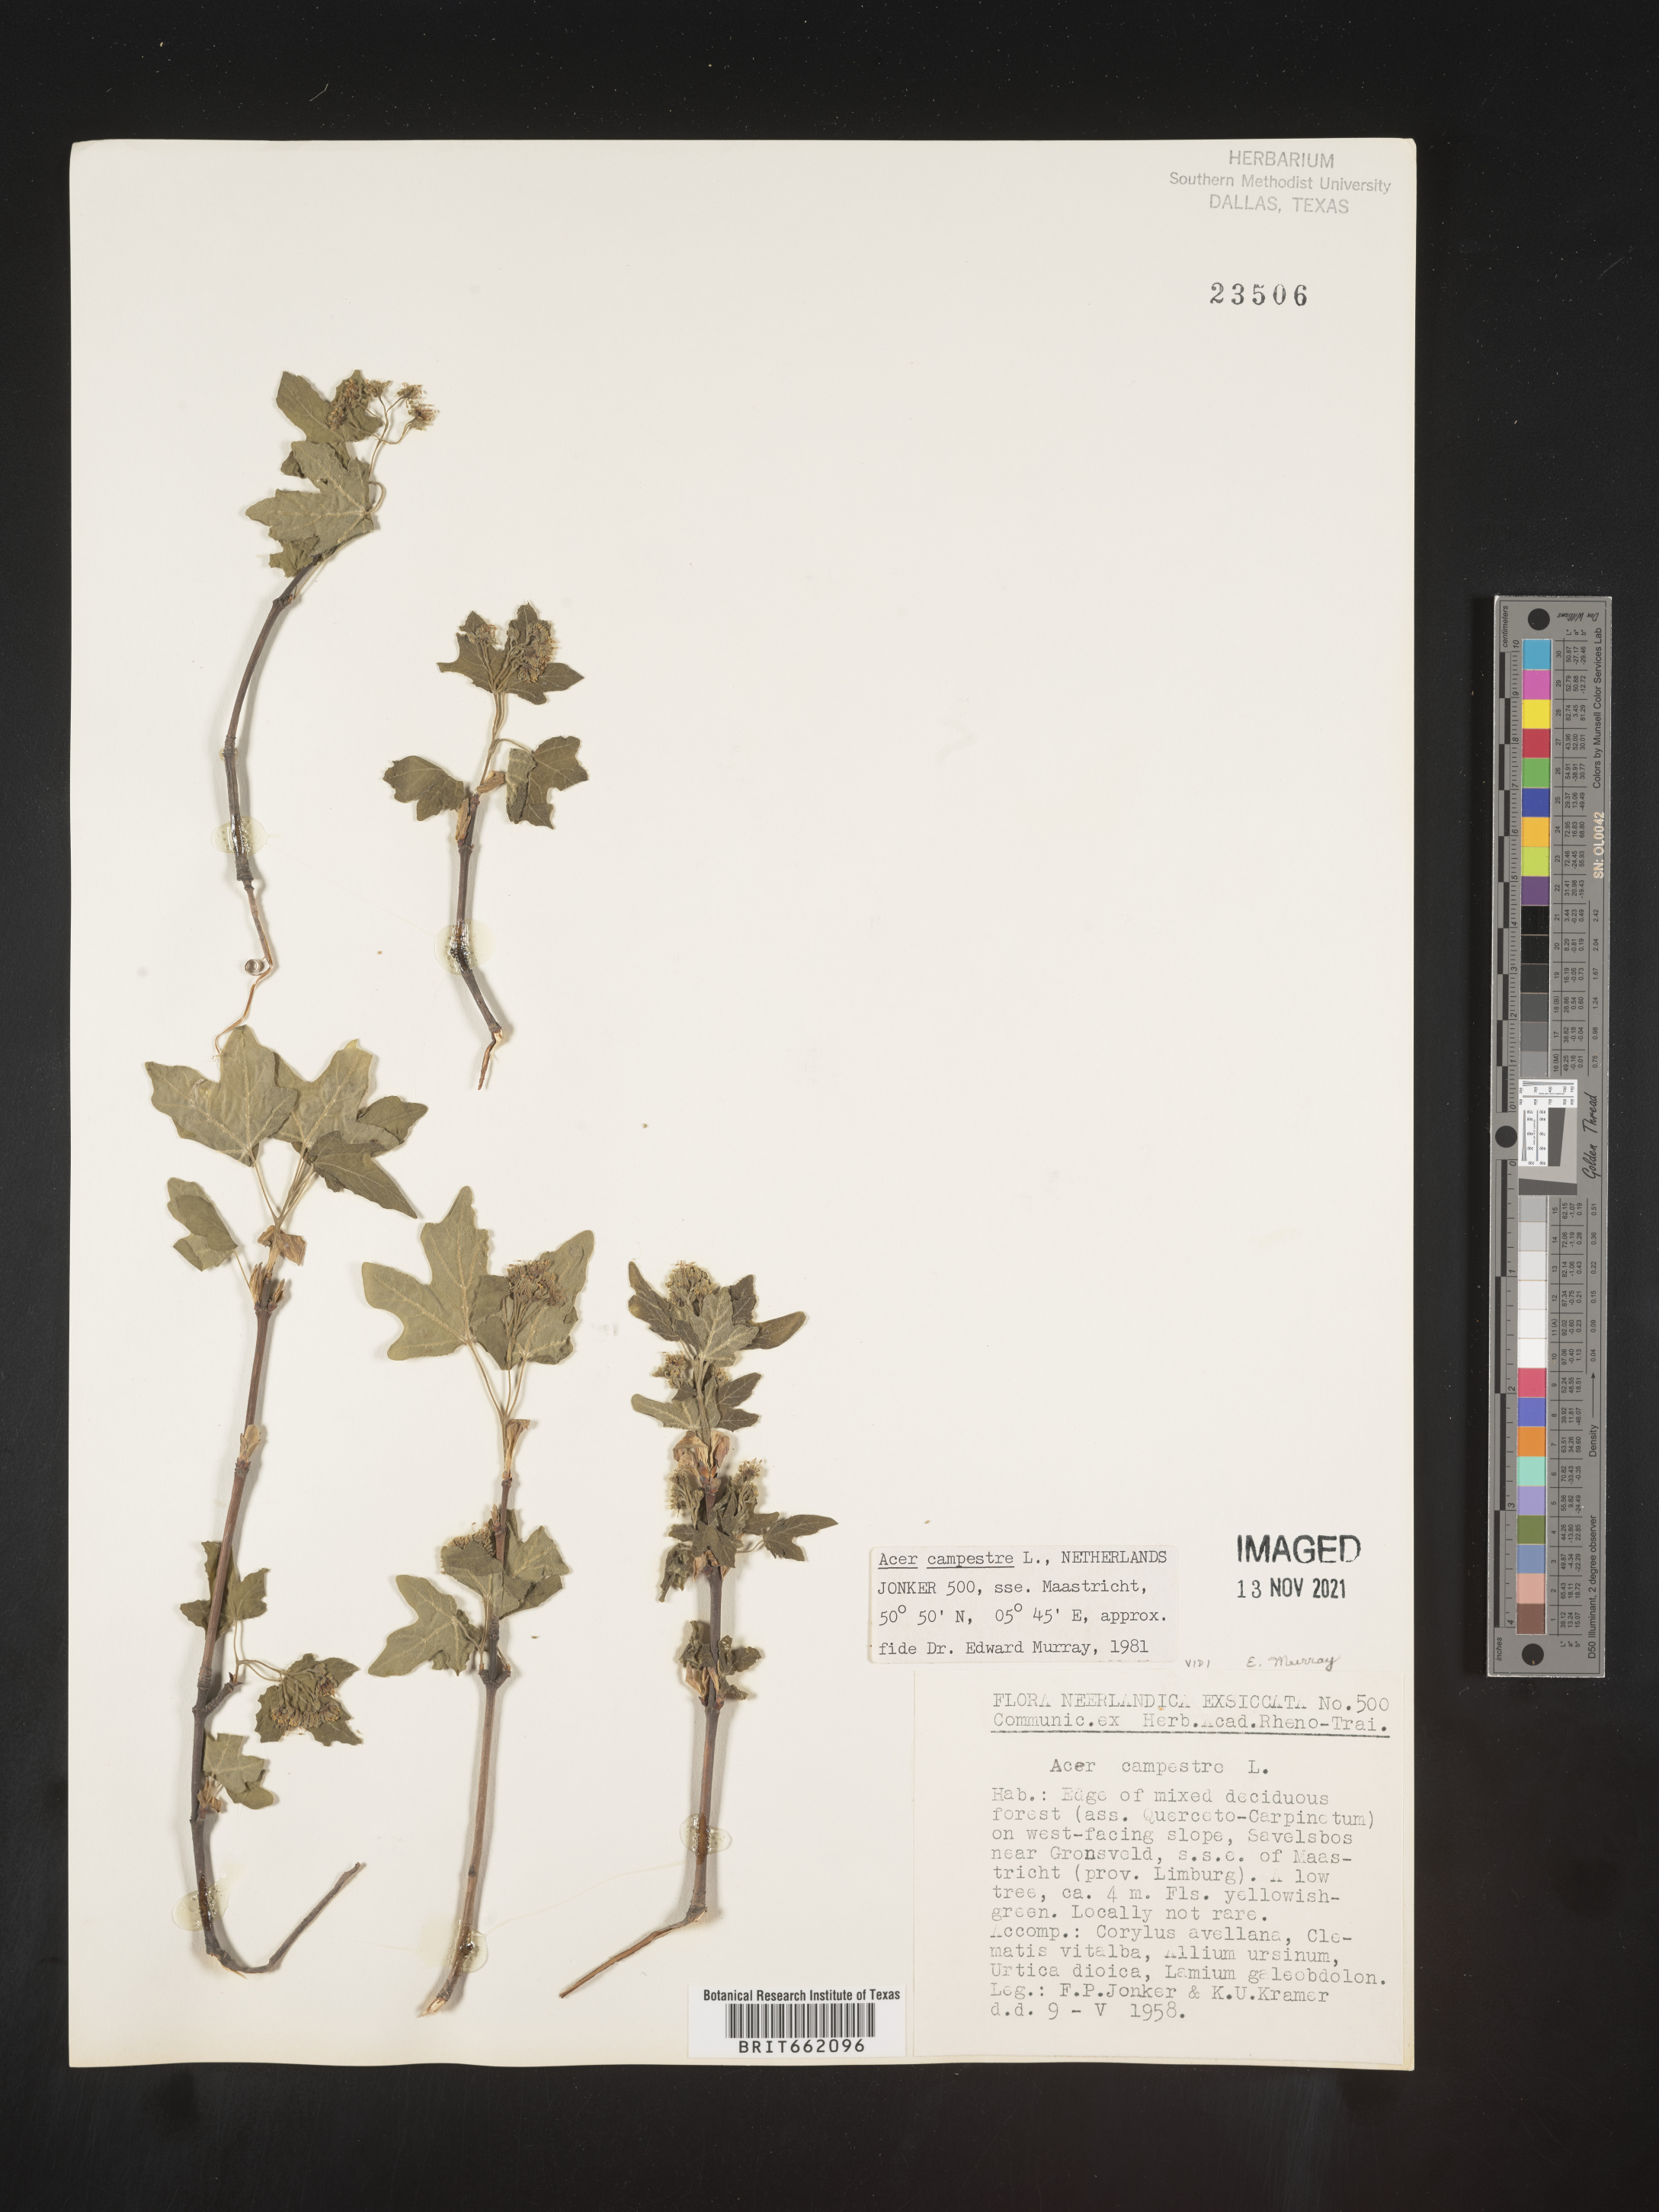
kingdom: Plantae
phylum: Tracheophyta
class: Magnoliopsida
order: Sapindales
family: Sapindaceae
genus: Acer
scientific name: Acer
